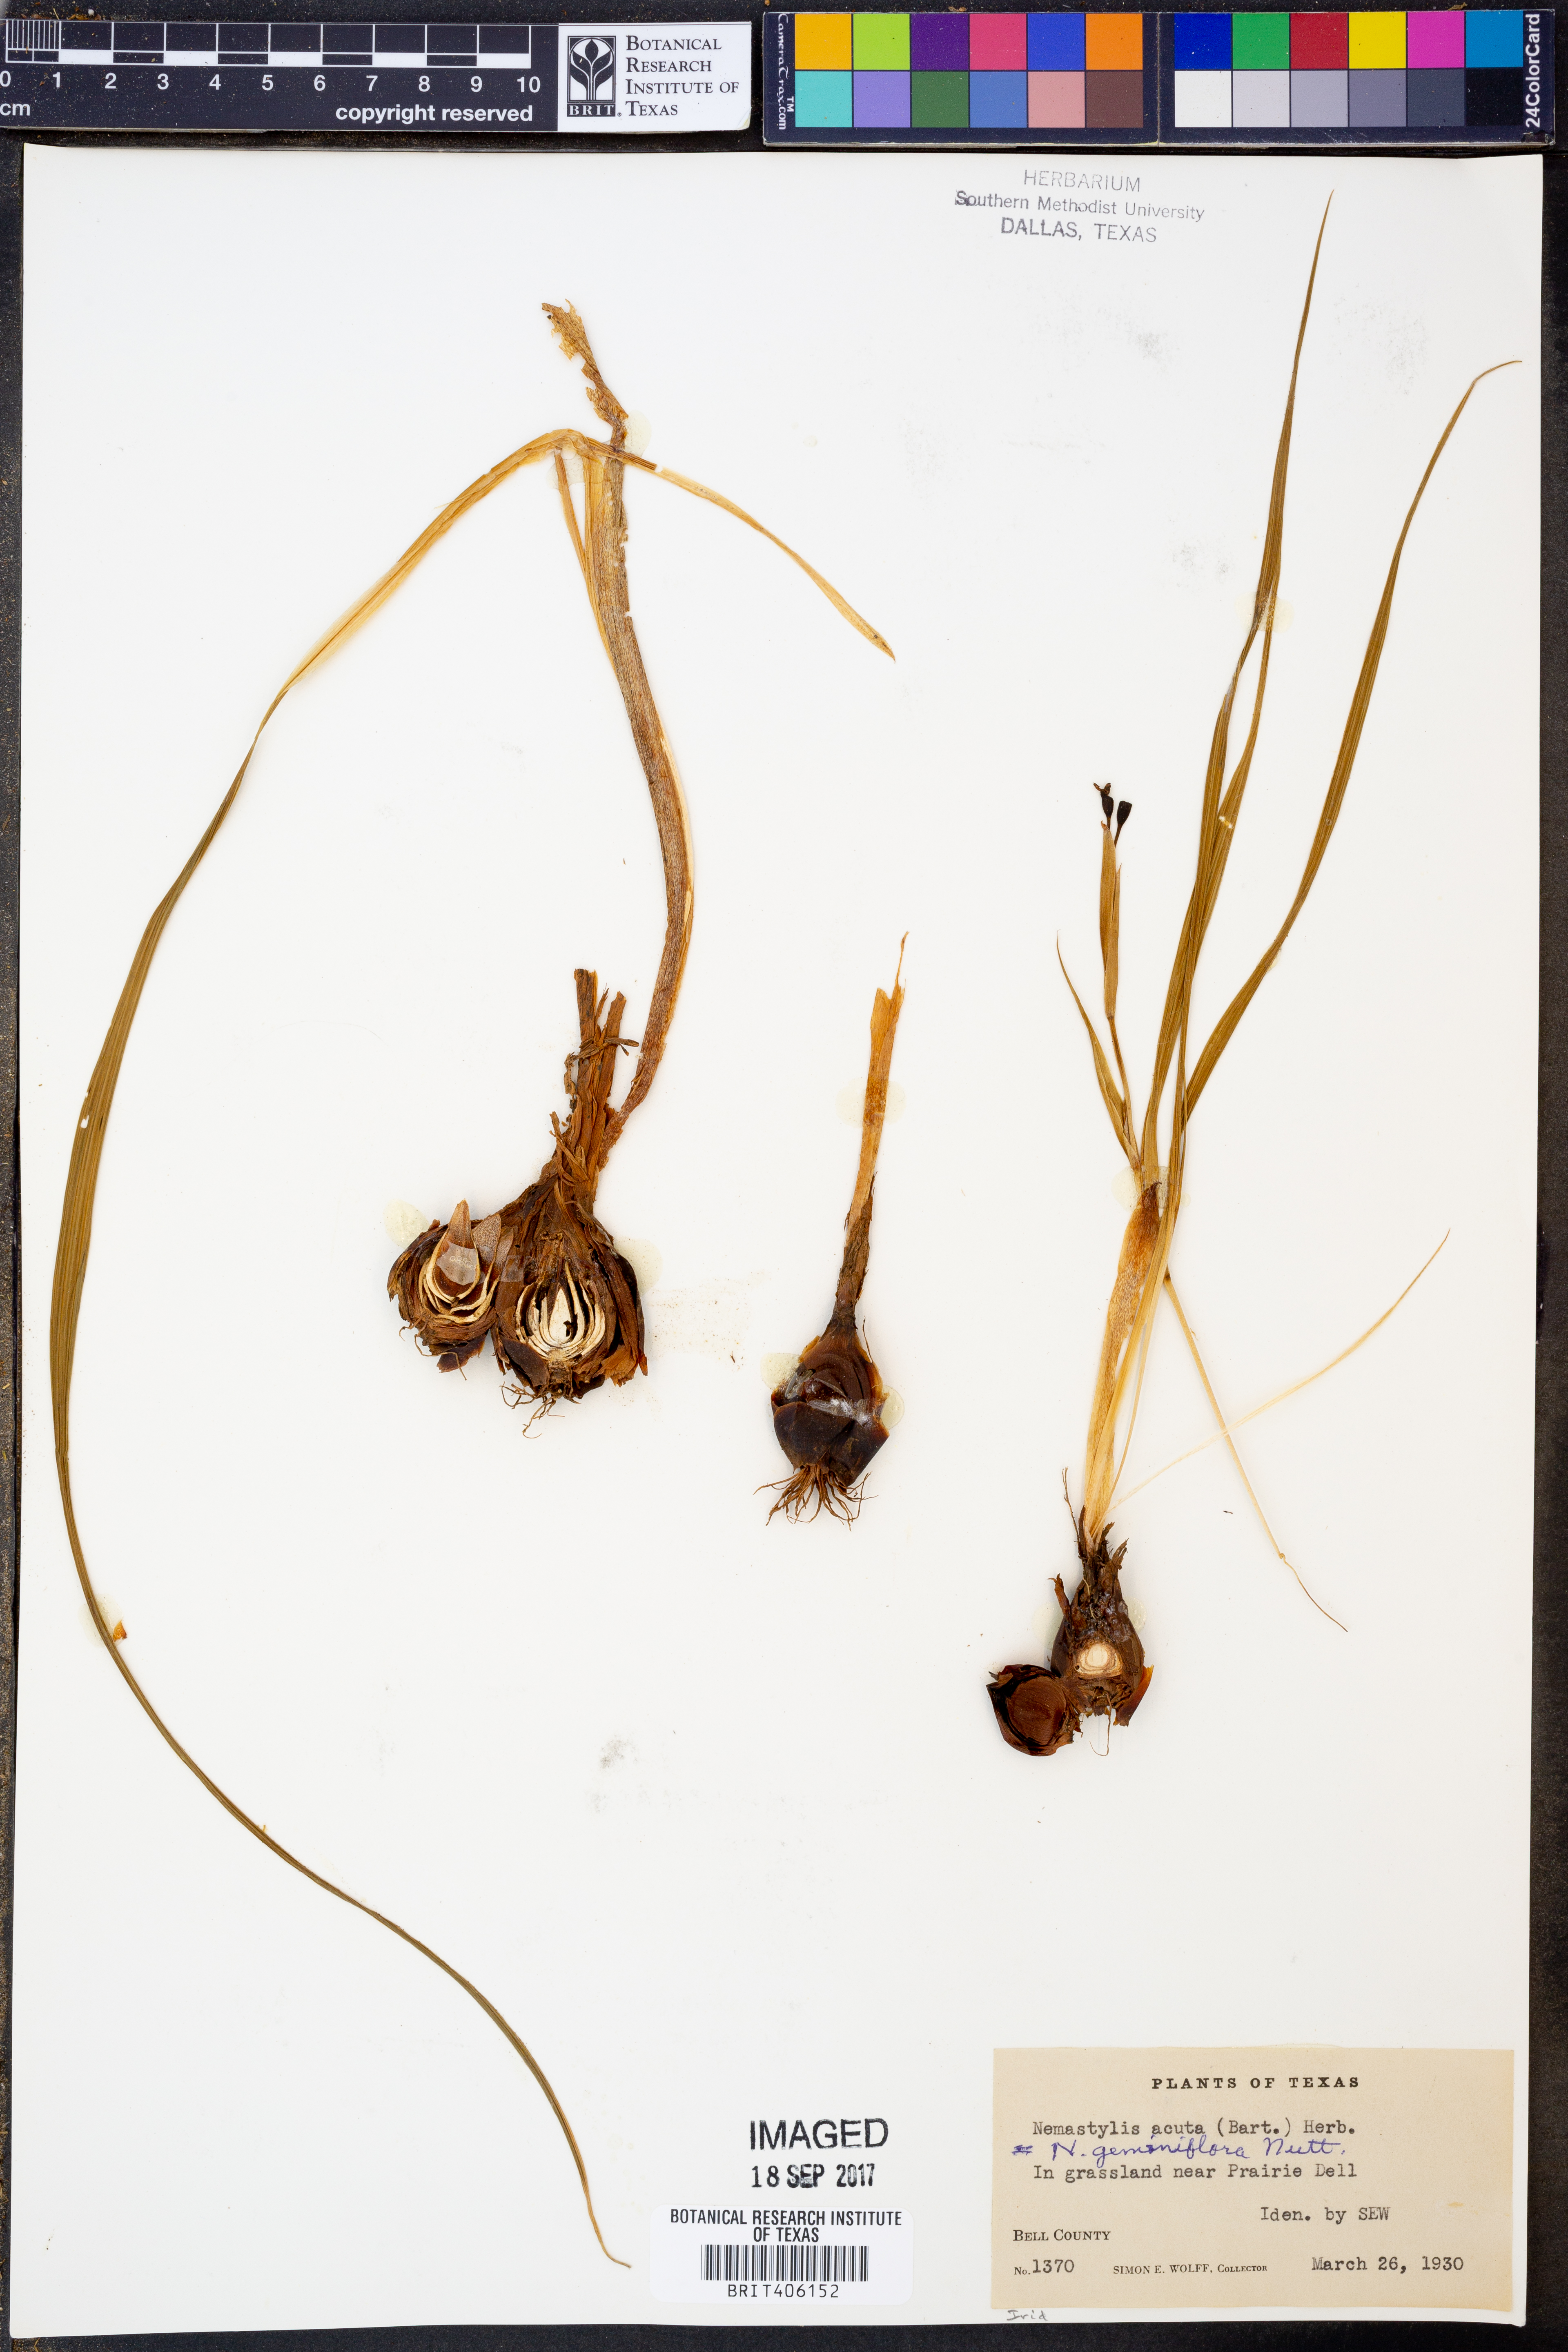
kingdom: Plantae
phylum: Tracheophyta
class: Liliopsida
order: Asparagales
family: Iridaceae
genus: Nemastylis
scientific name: Nemastylis geminiflora
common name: Prairie celestial
